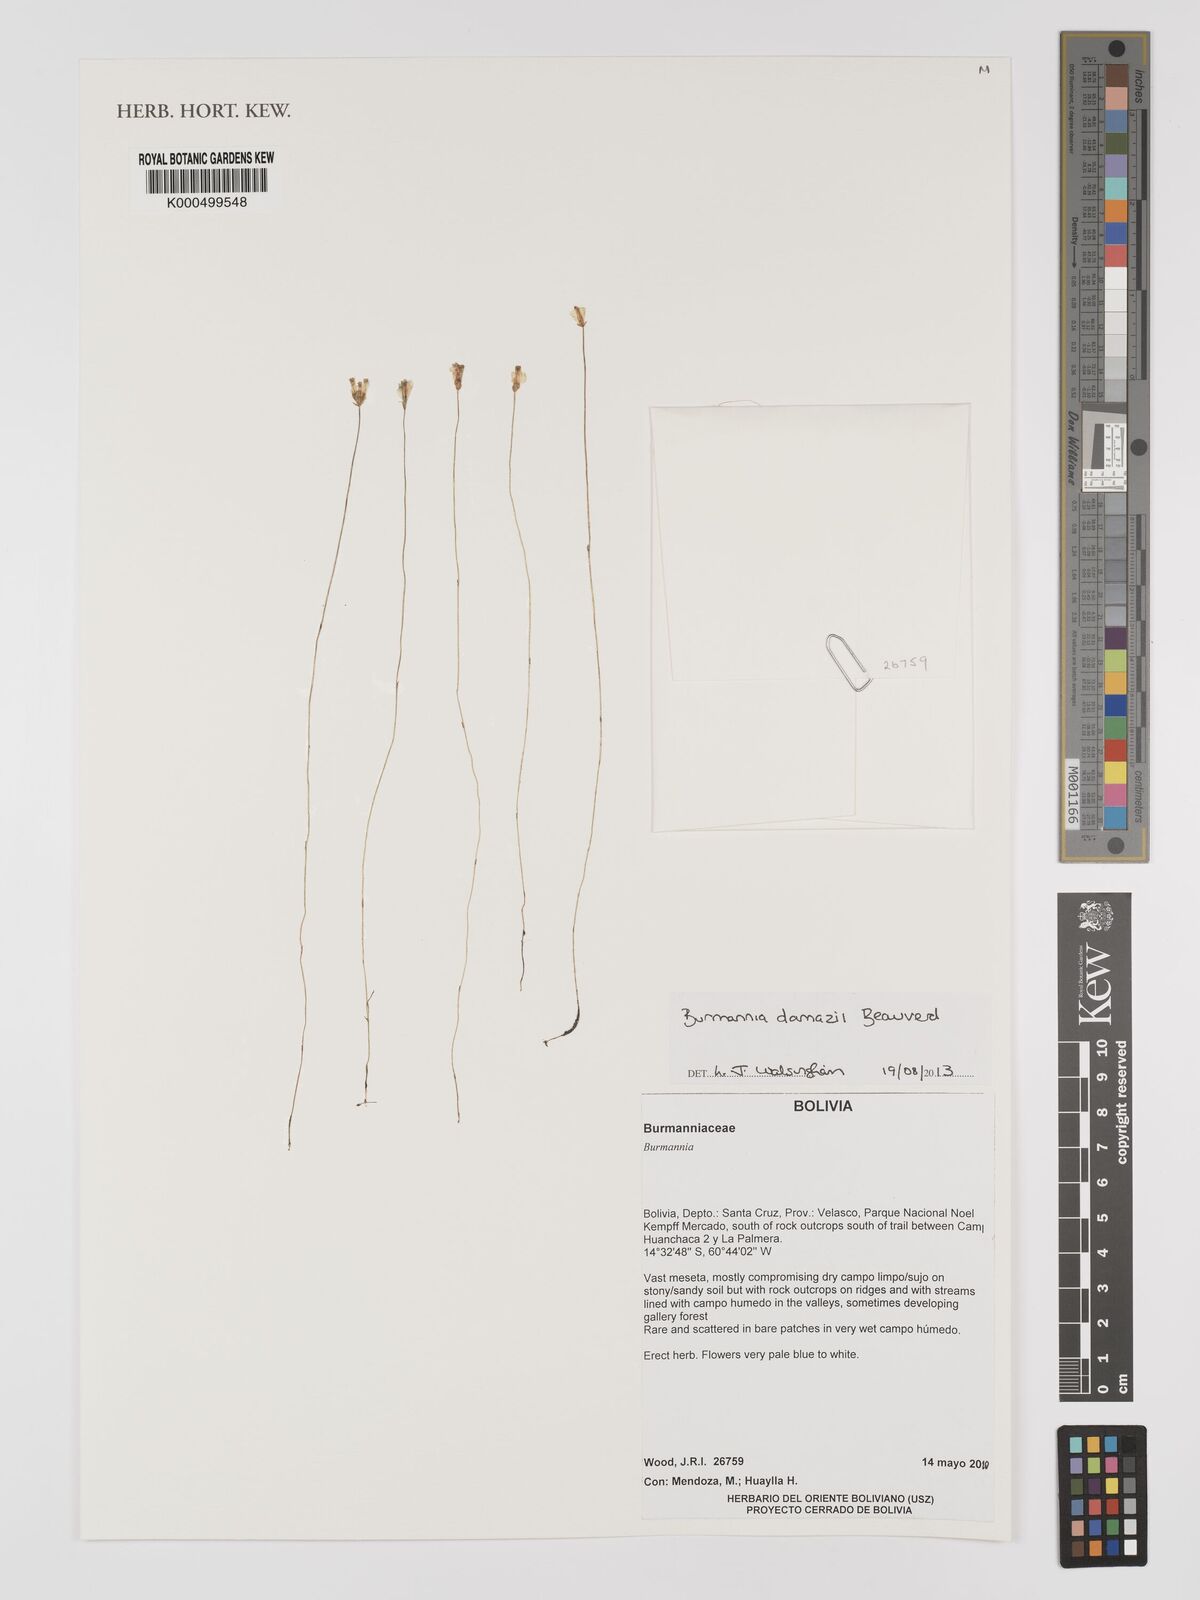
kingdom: Plantae
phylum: Tracheophyta
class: Liliopsida
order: Dioscoreales
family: Burmanniaceae
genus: Burmannia
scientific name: Burmannia damazii
